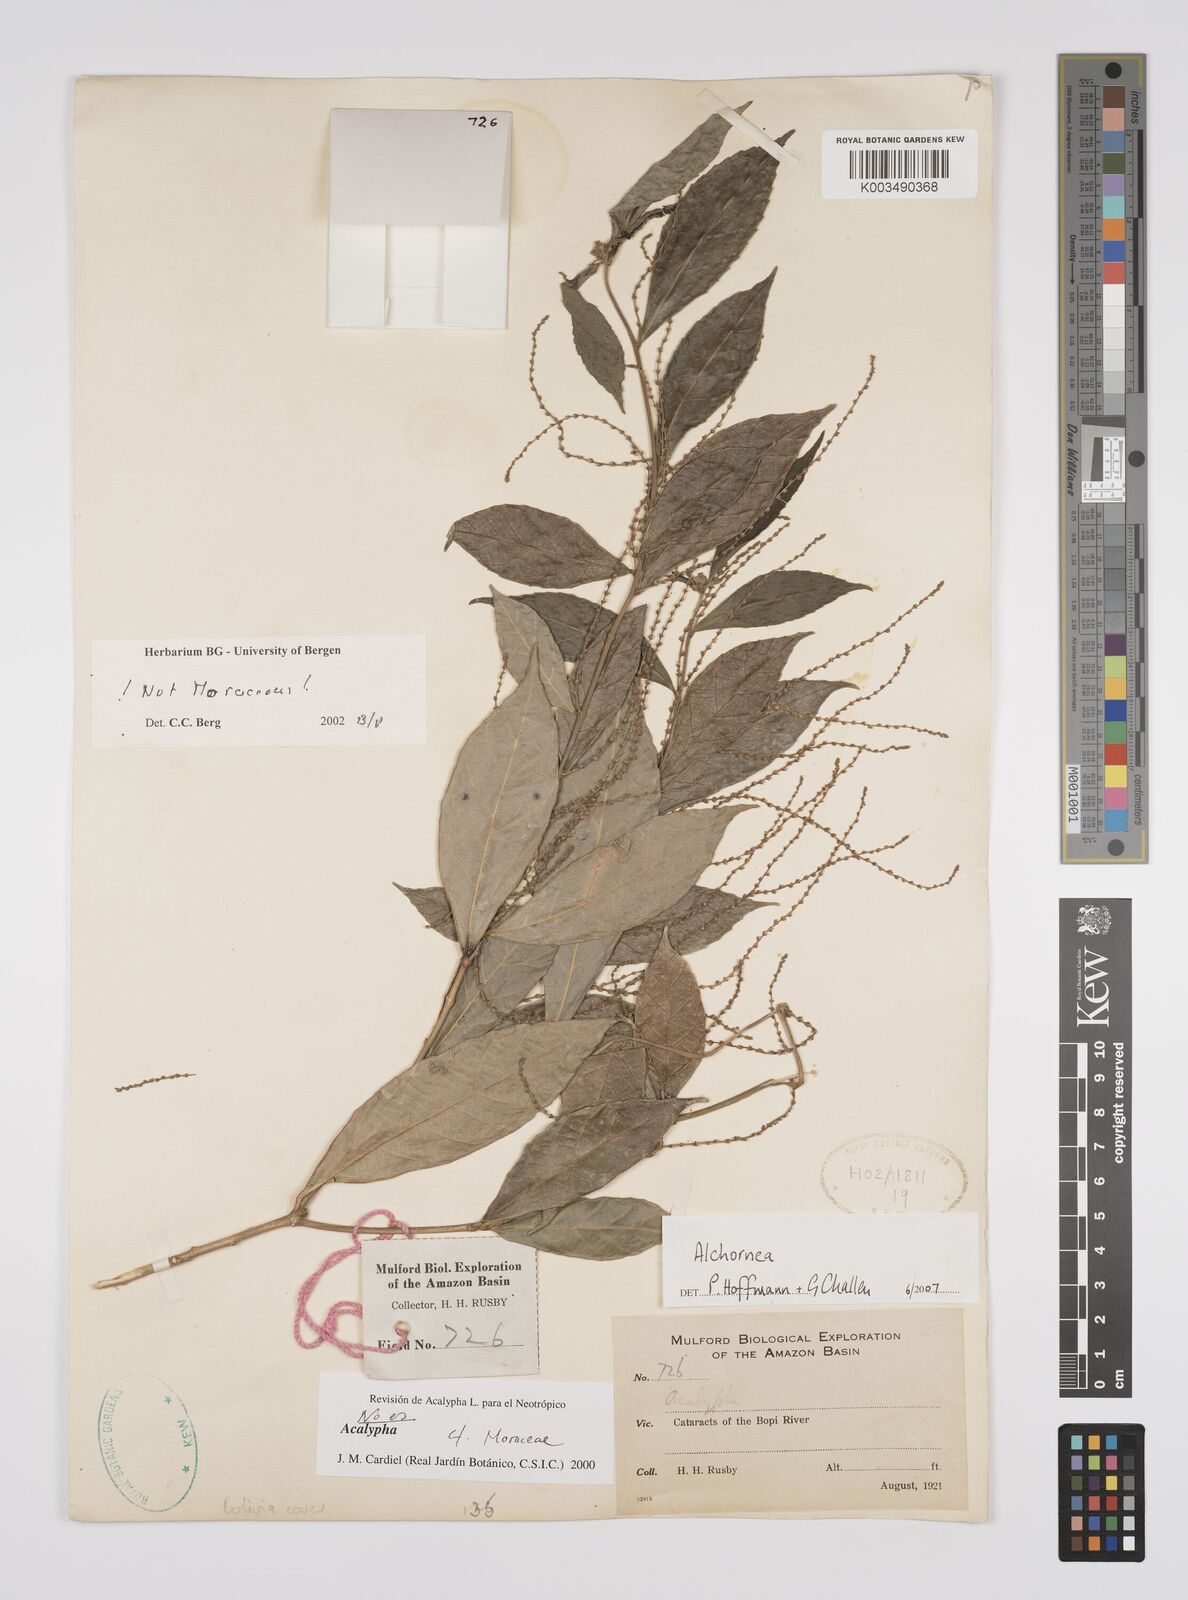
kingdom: Plantae
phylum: Tracheophyta
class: Magnoliopsida
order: Malpighiales
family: Euphorbiaceae
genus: Alchornea
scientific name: Alchornea
